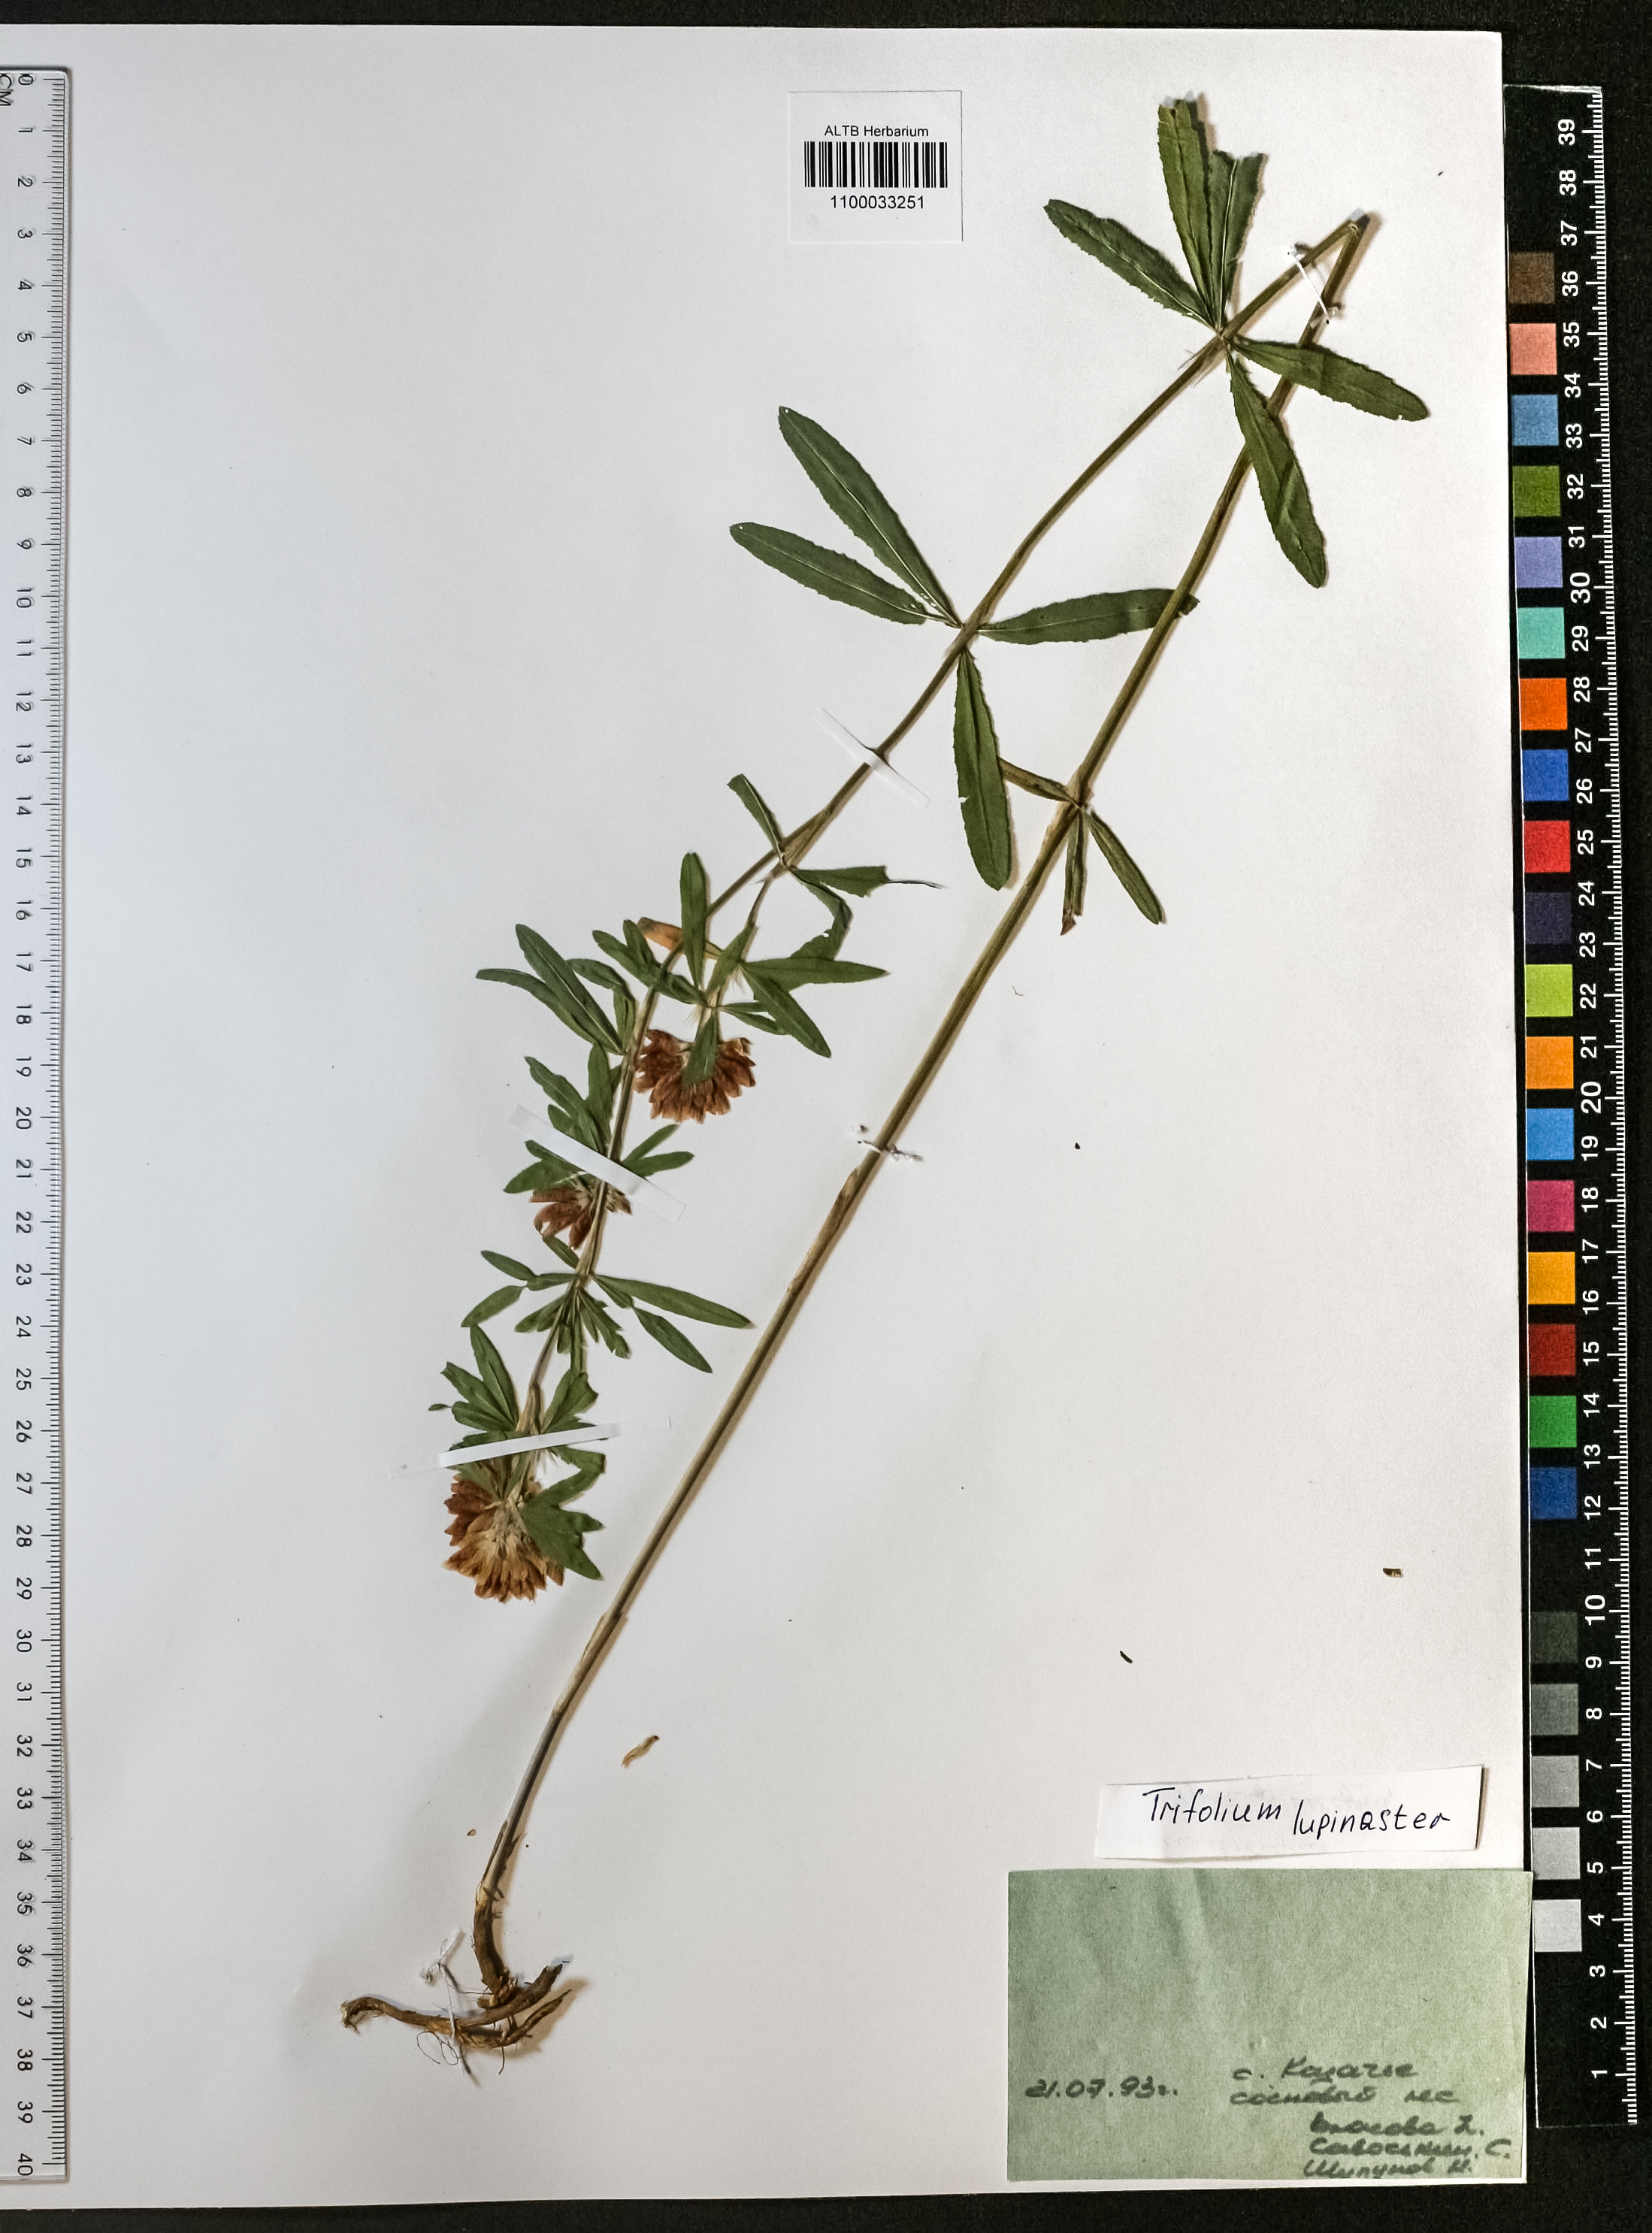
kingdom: Plantae
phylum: Tracheophyta
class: Magnoliopsida
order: Fabales
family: Fabaceae
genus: Trifolium
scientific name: Trifolium lupinaster
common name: Lupine clover
